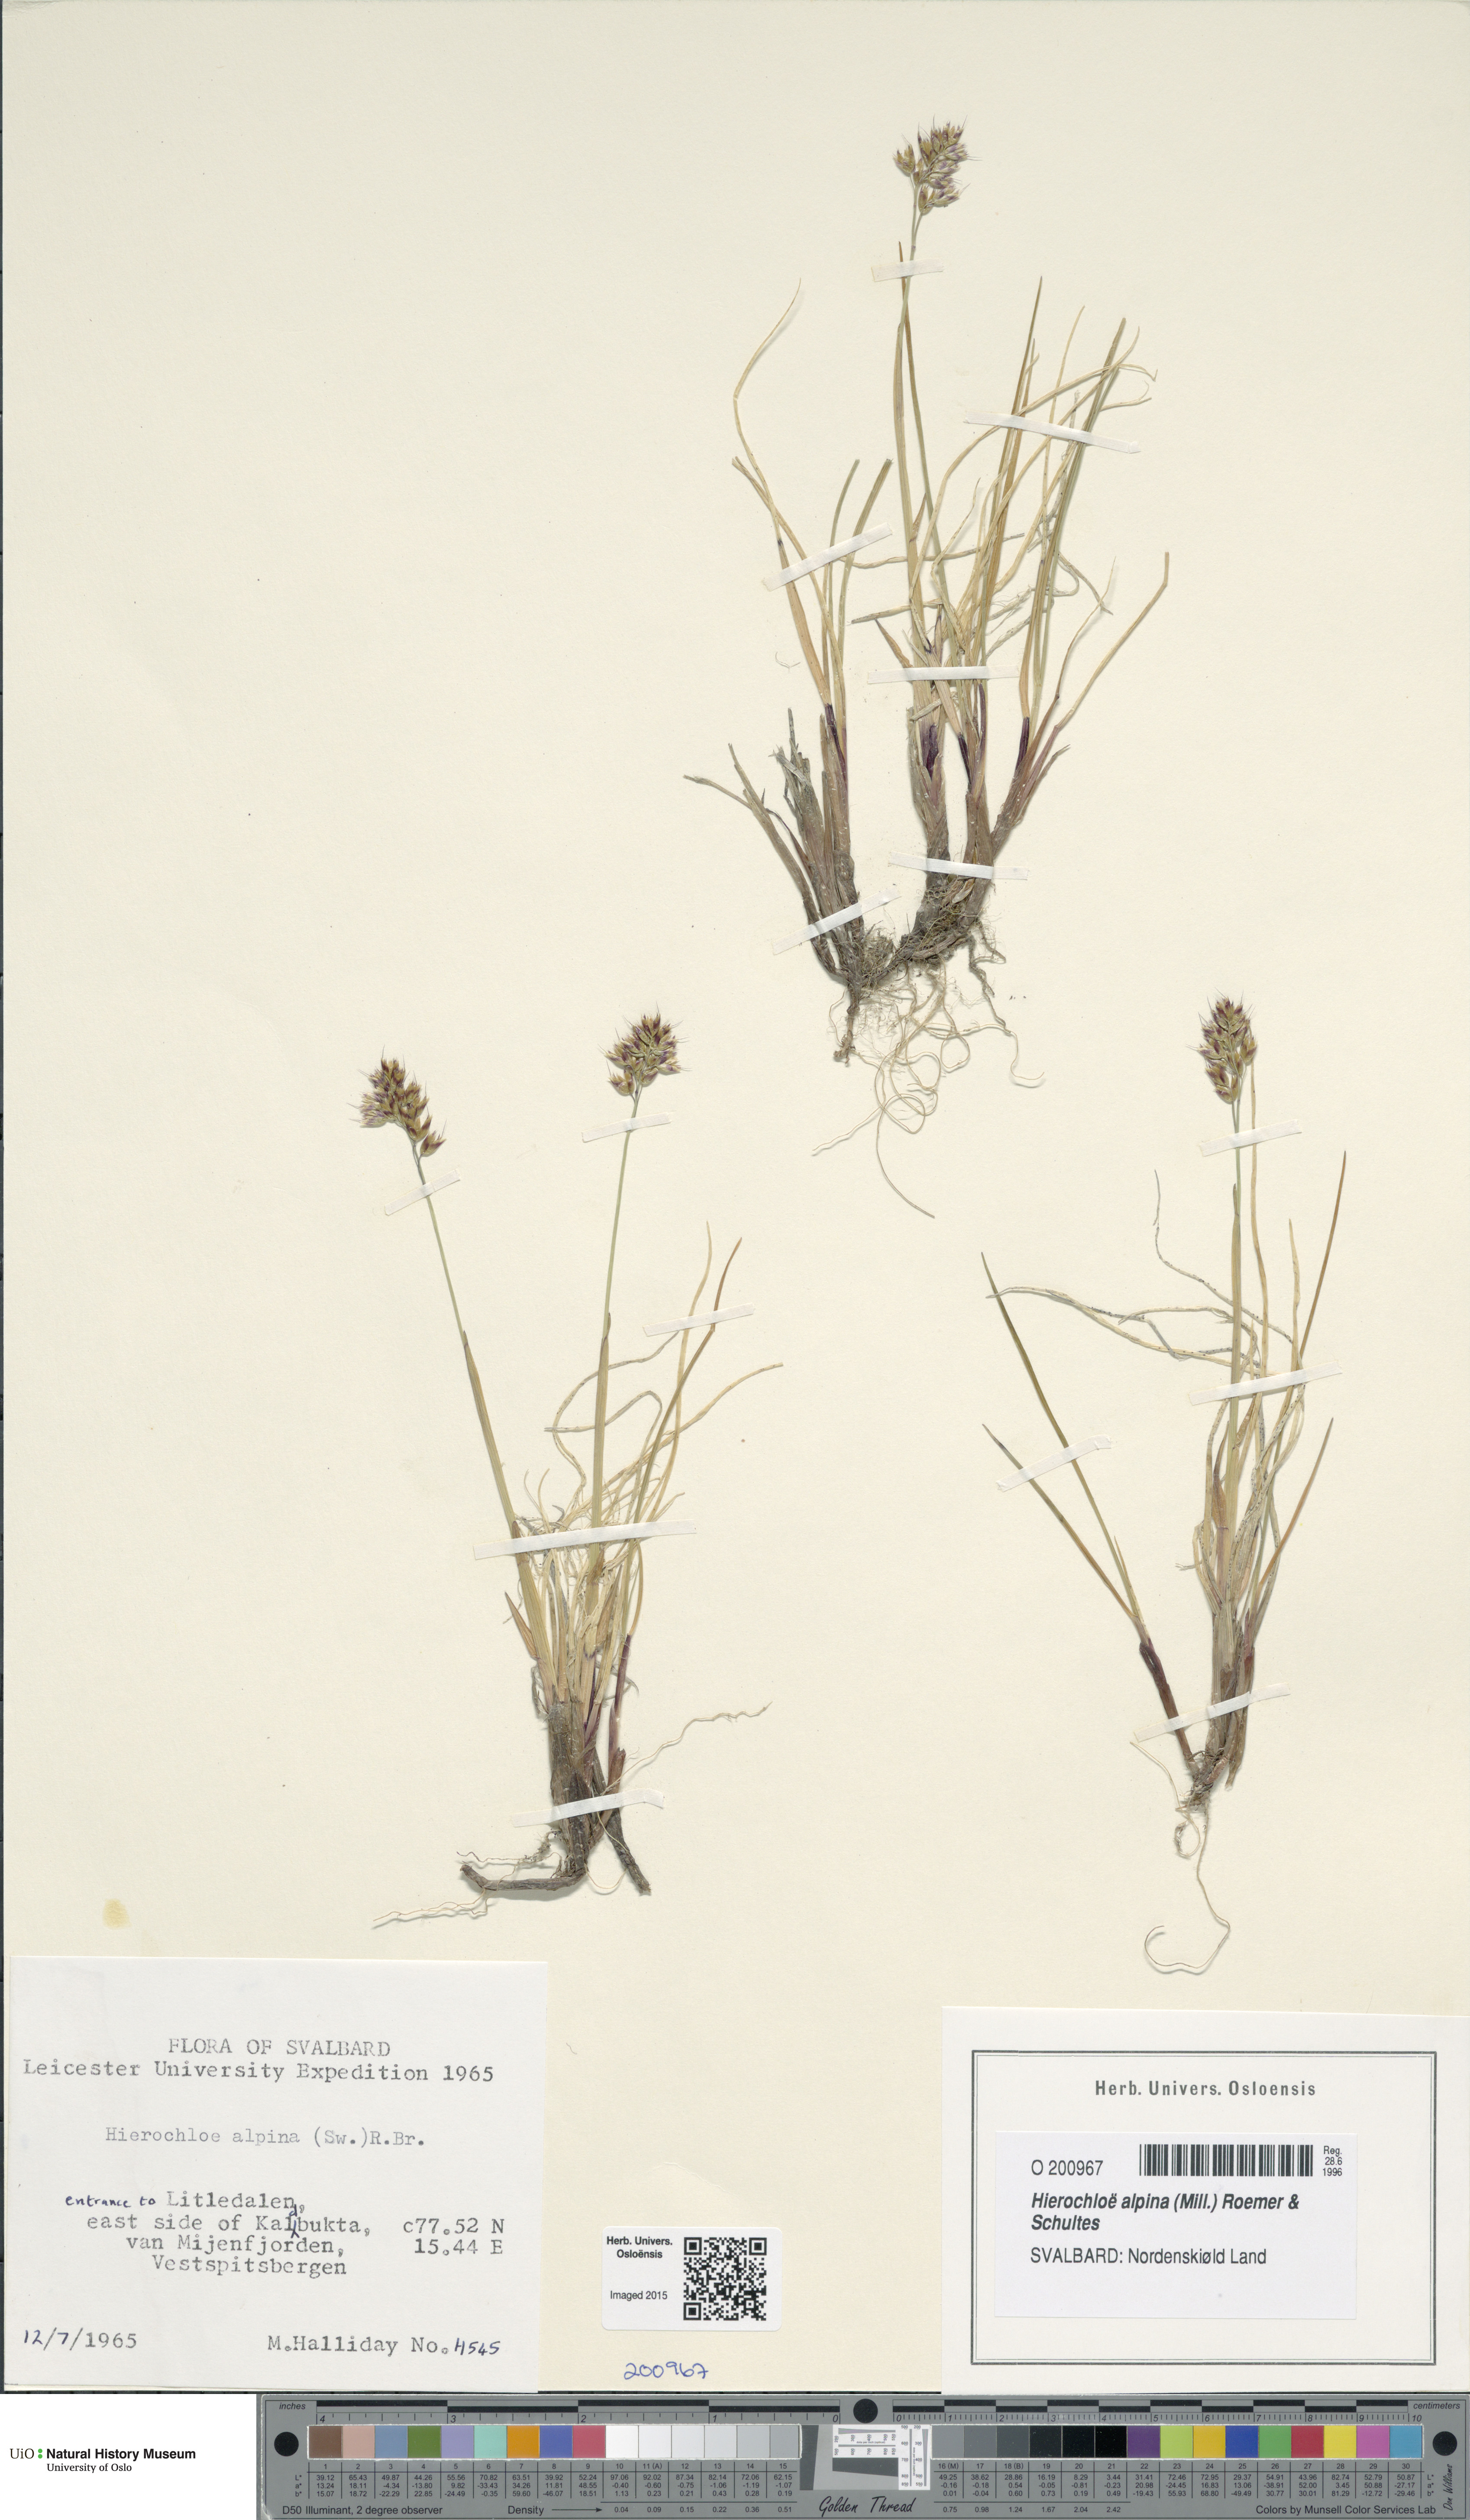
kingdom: Plantae
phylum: Tracheophyta
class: Liliopsida
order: Poales
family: Poaceae
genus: Anthoxanthum
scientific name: Anthoxanthum monticola
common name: Alpine sweetgrass
